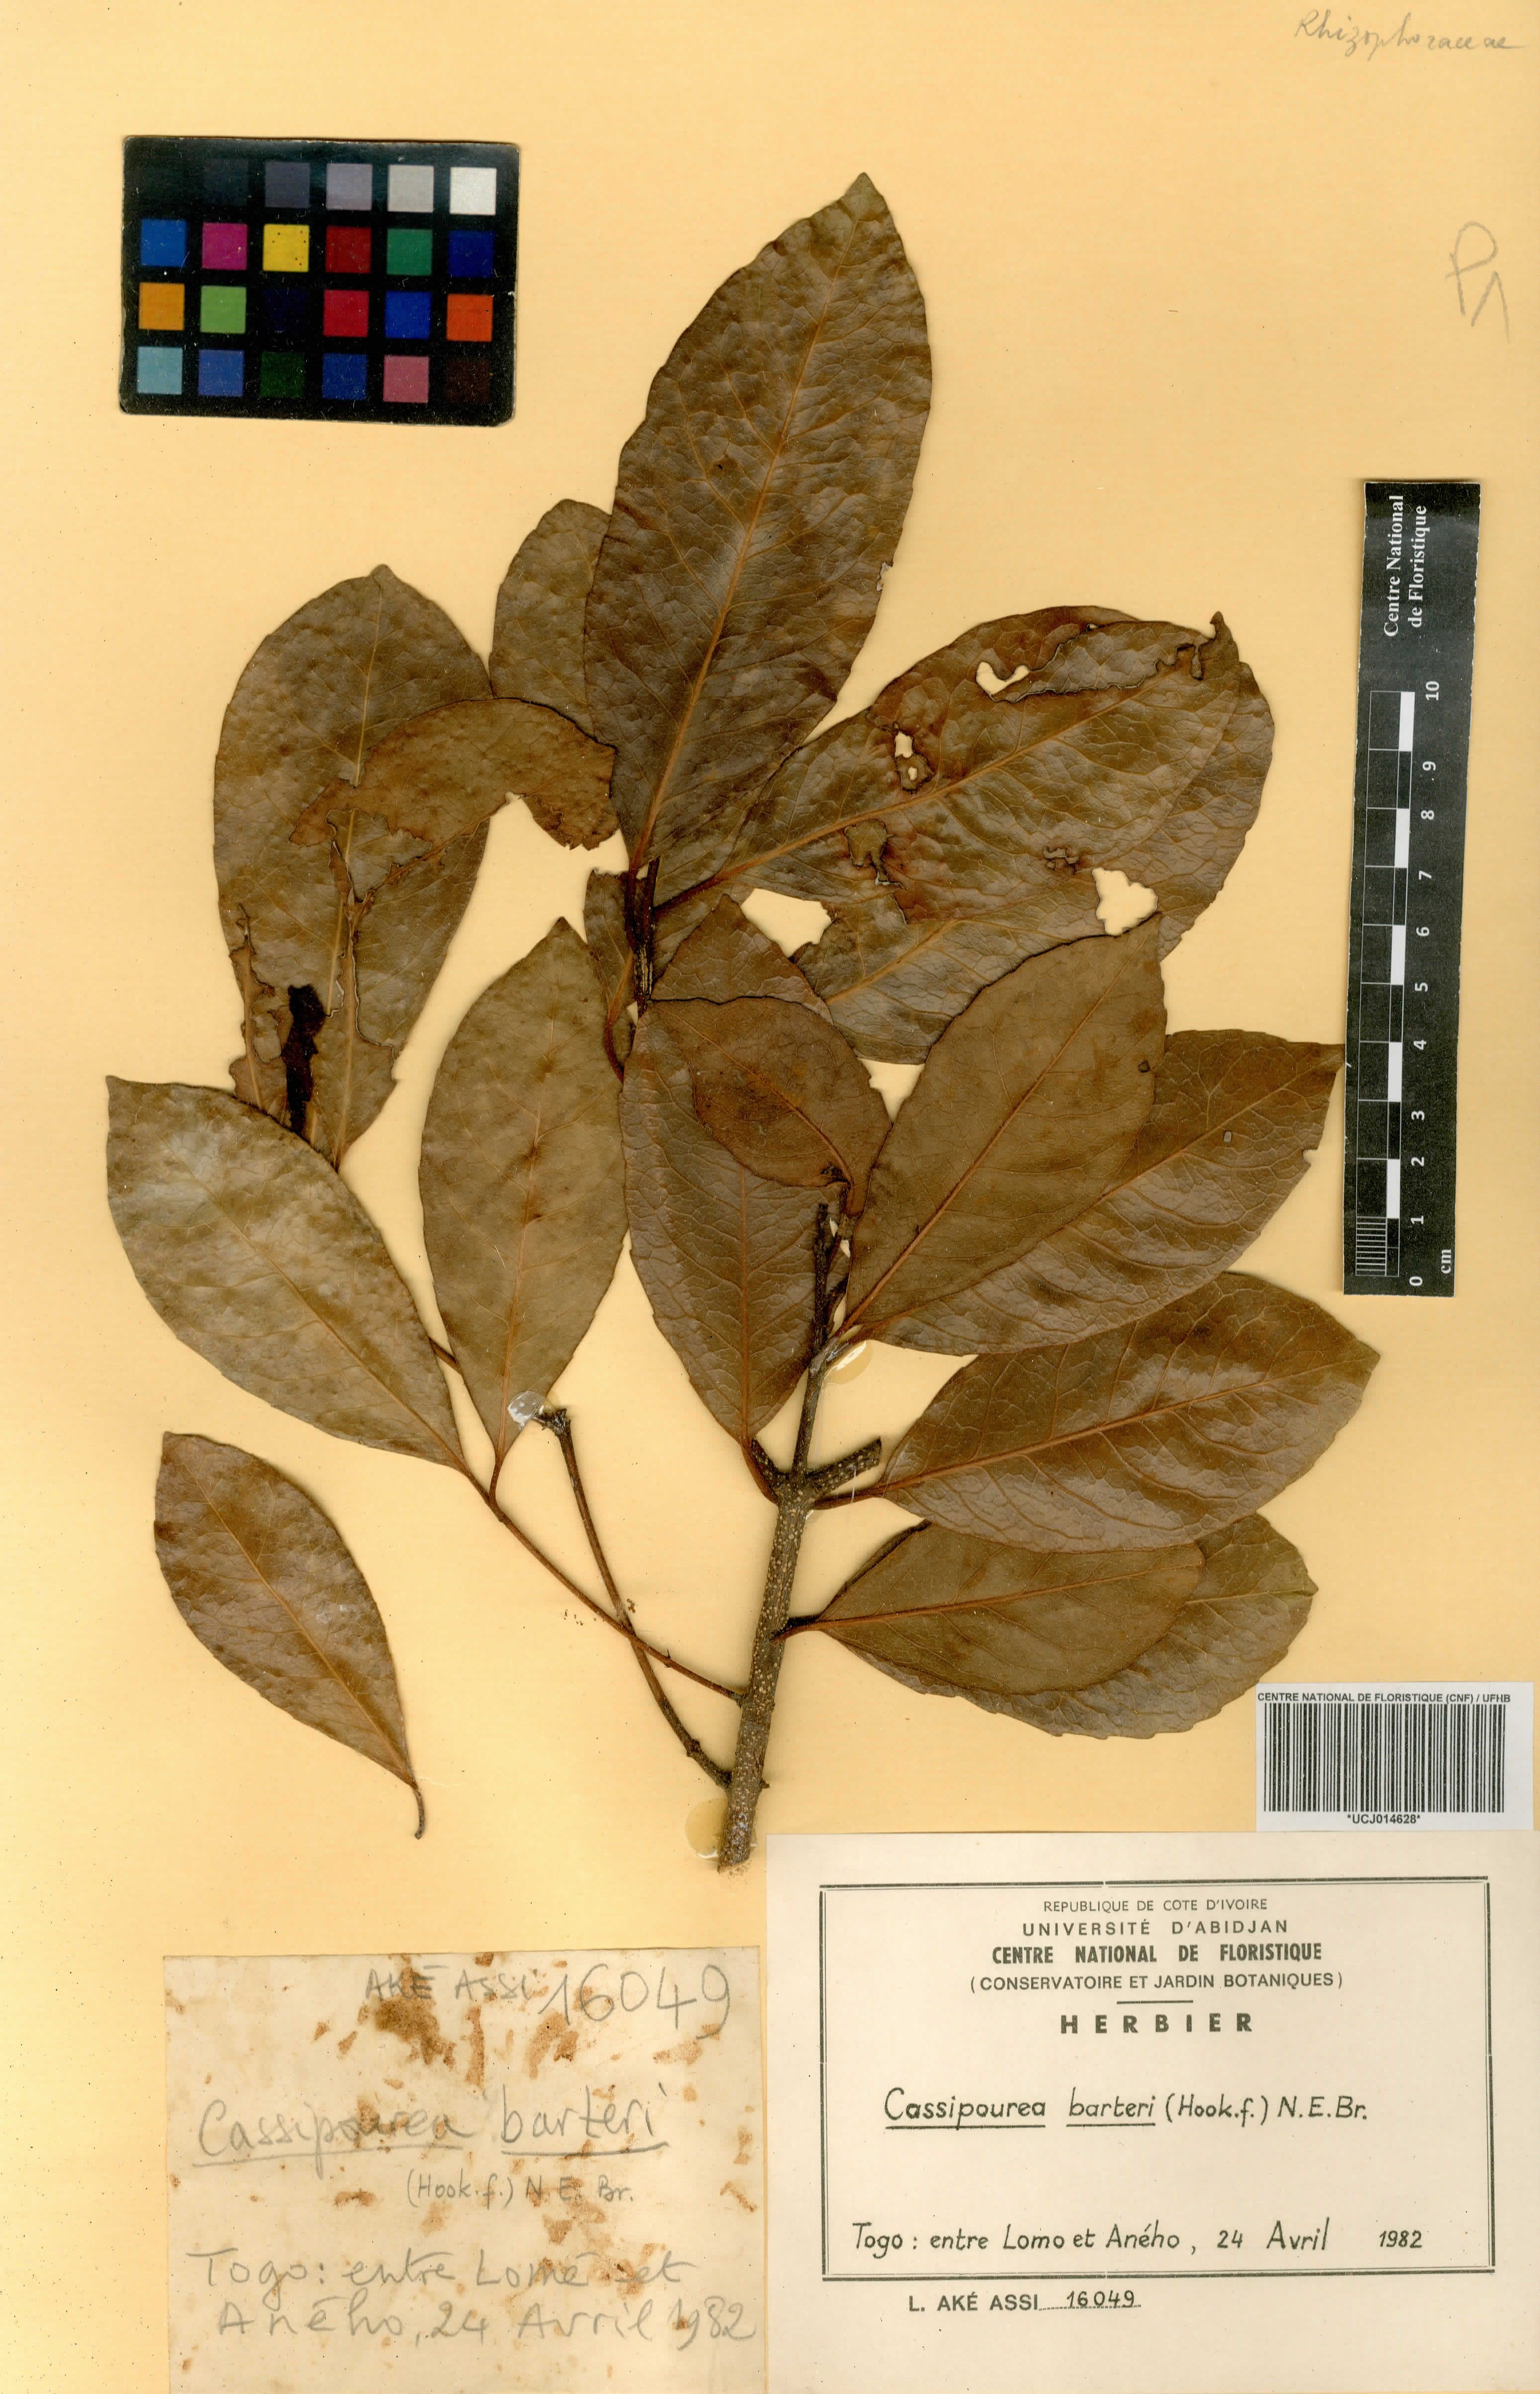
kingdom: Plantae
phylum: Tracheophyta
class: Magnoliopsida
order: Malpighiales
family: Rhizophoraceae
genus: Cassipourea
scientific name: Cassipourea barteri
